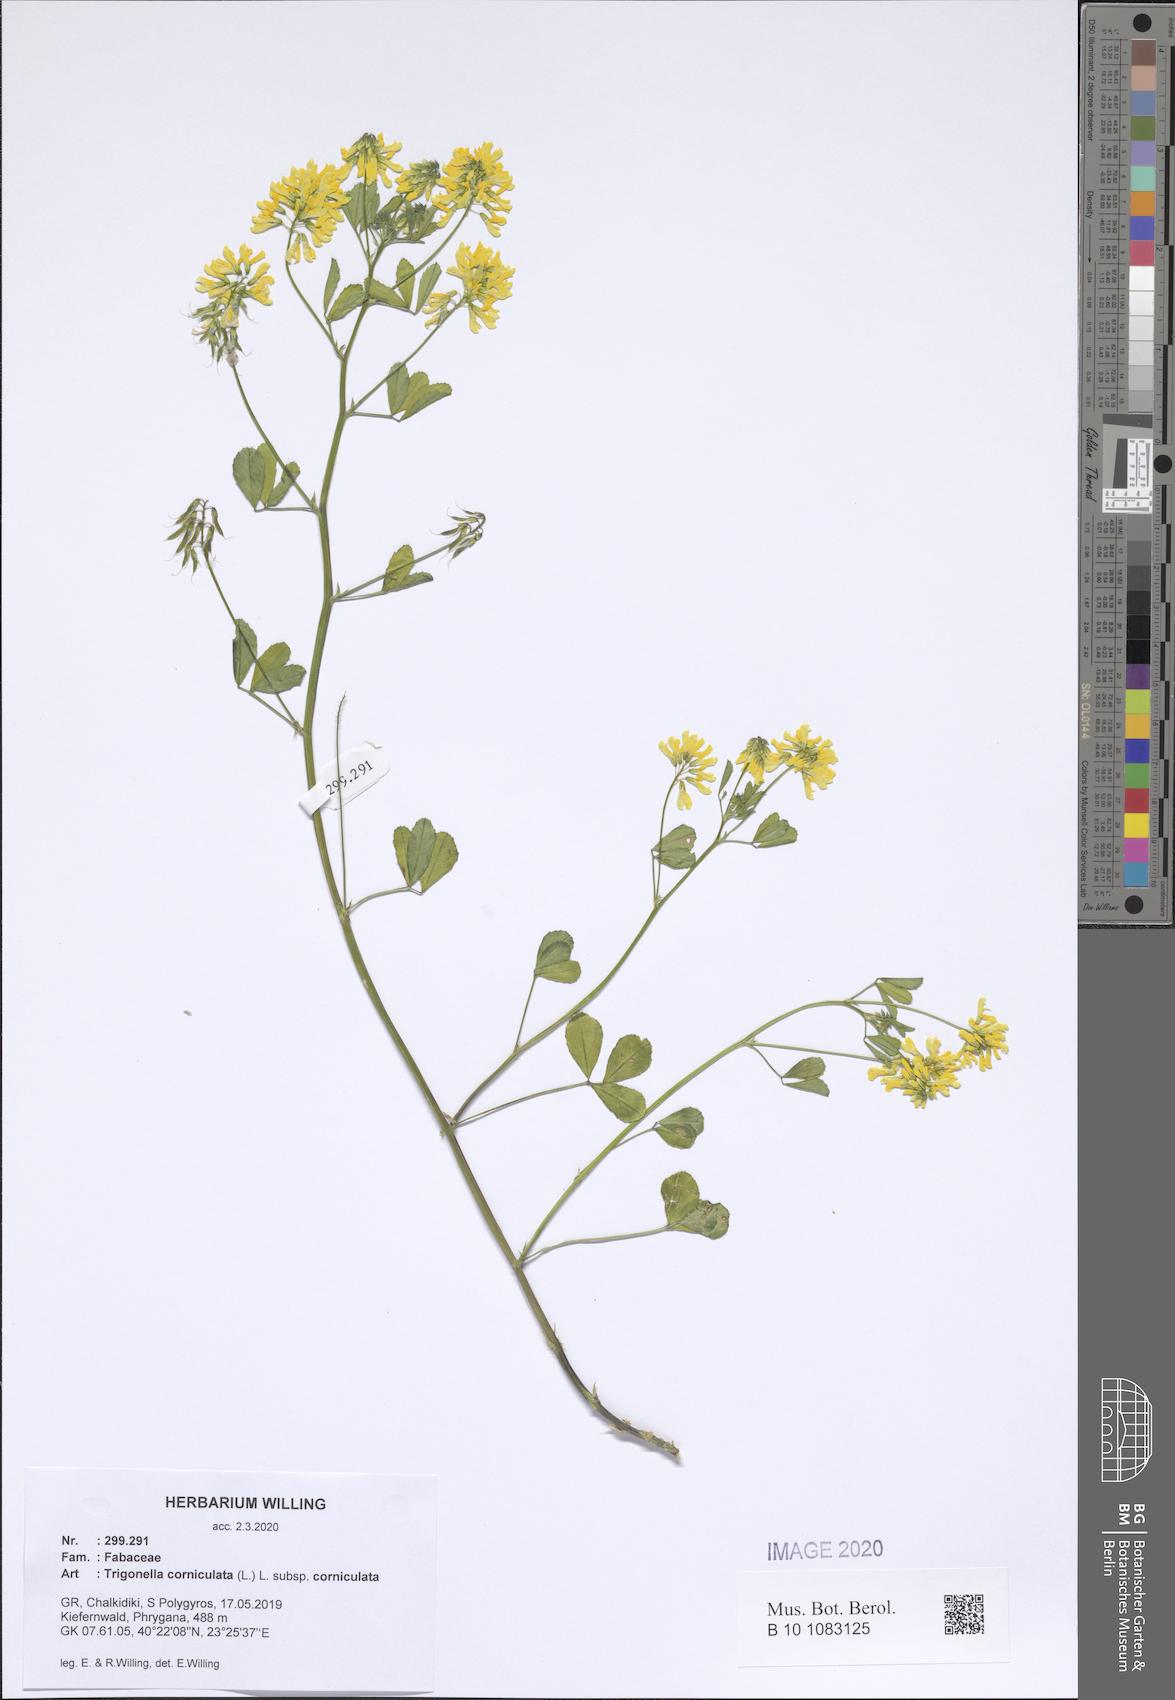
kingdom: Plantae
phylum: Tracheophyta
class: Magnoliopsida
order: Fabales
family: Fabaceae
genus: Trigonella
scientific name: Trigonella corniculata
